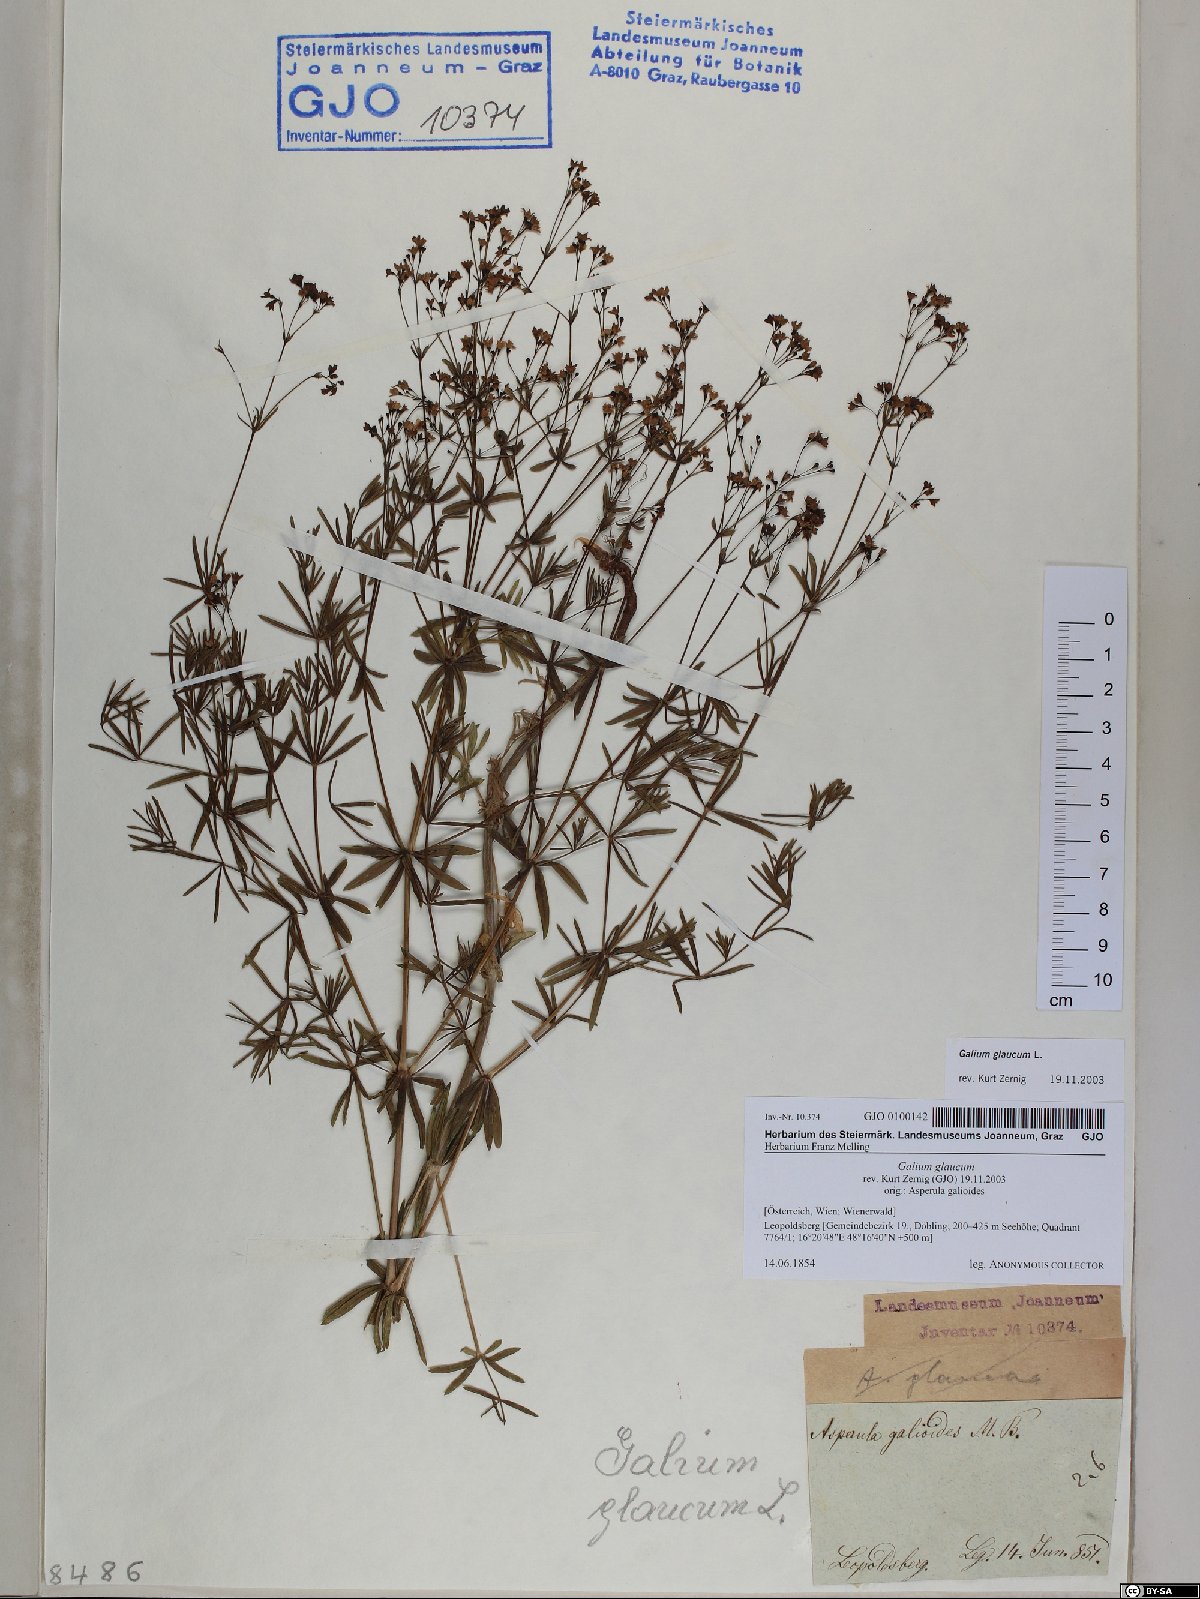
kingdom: Plantae
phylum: Tracheophyta
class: Magnoliopsida
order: Gentianales
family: Rubiaceae
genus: Galium
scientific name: Galium glaucum
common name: Waxy bedstraw
